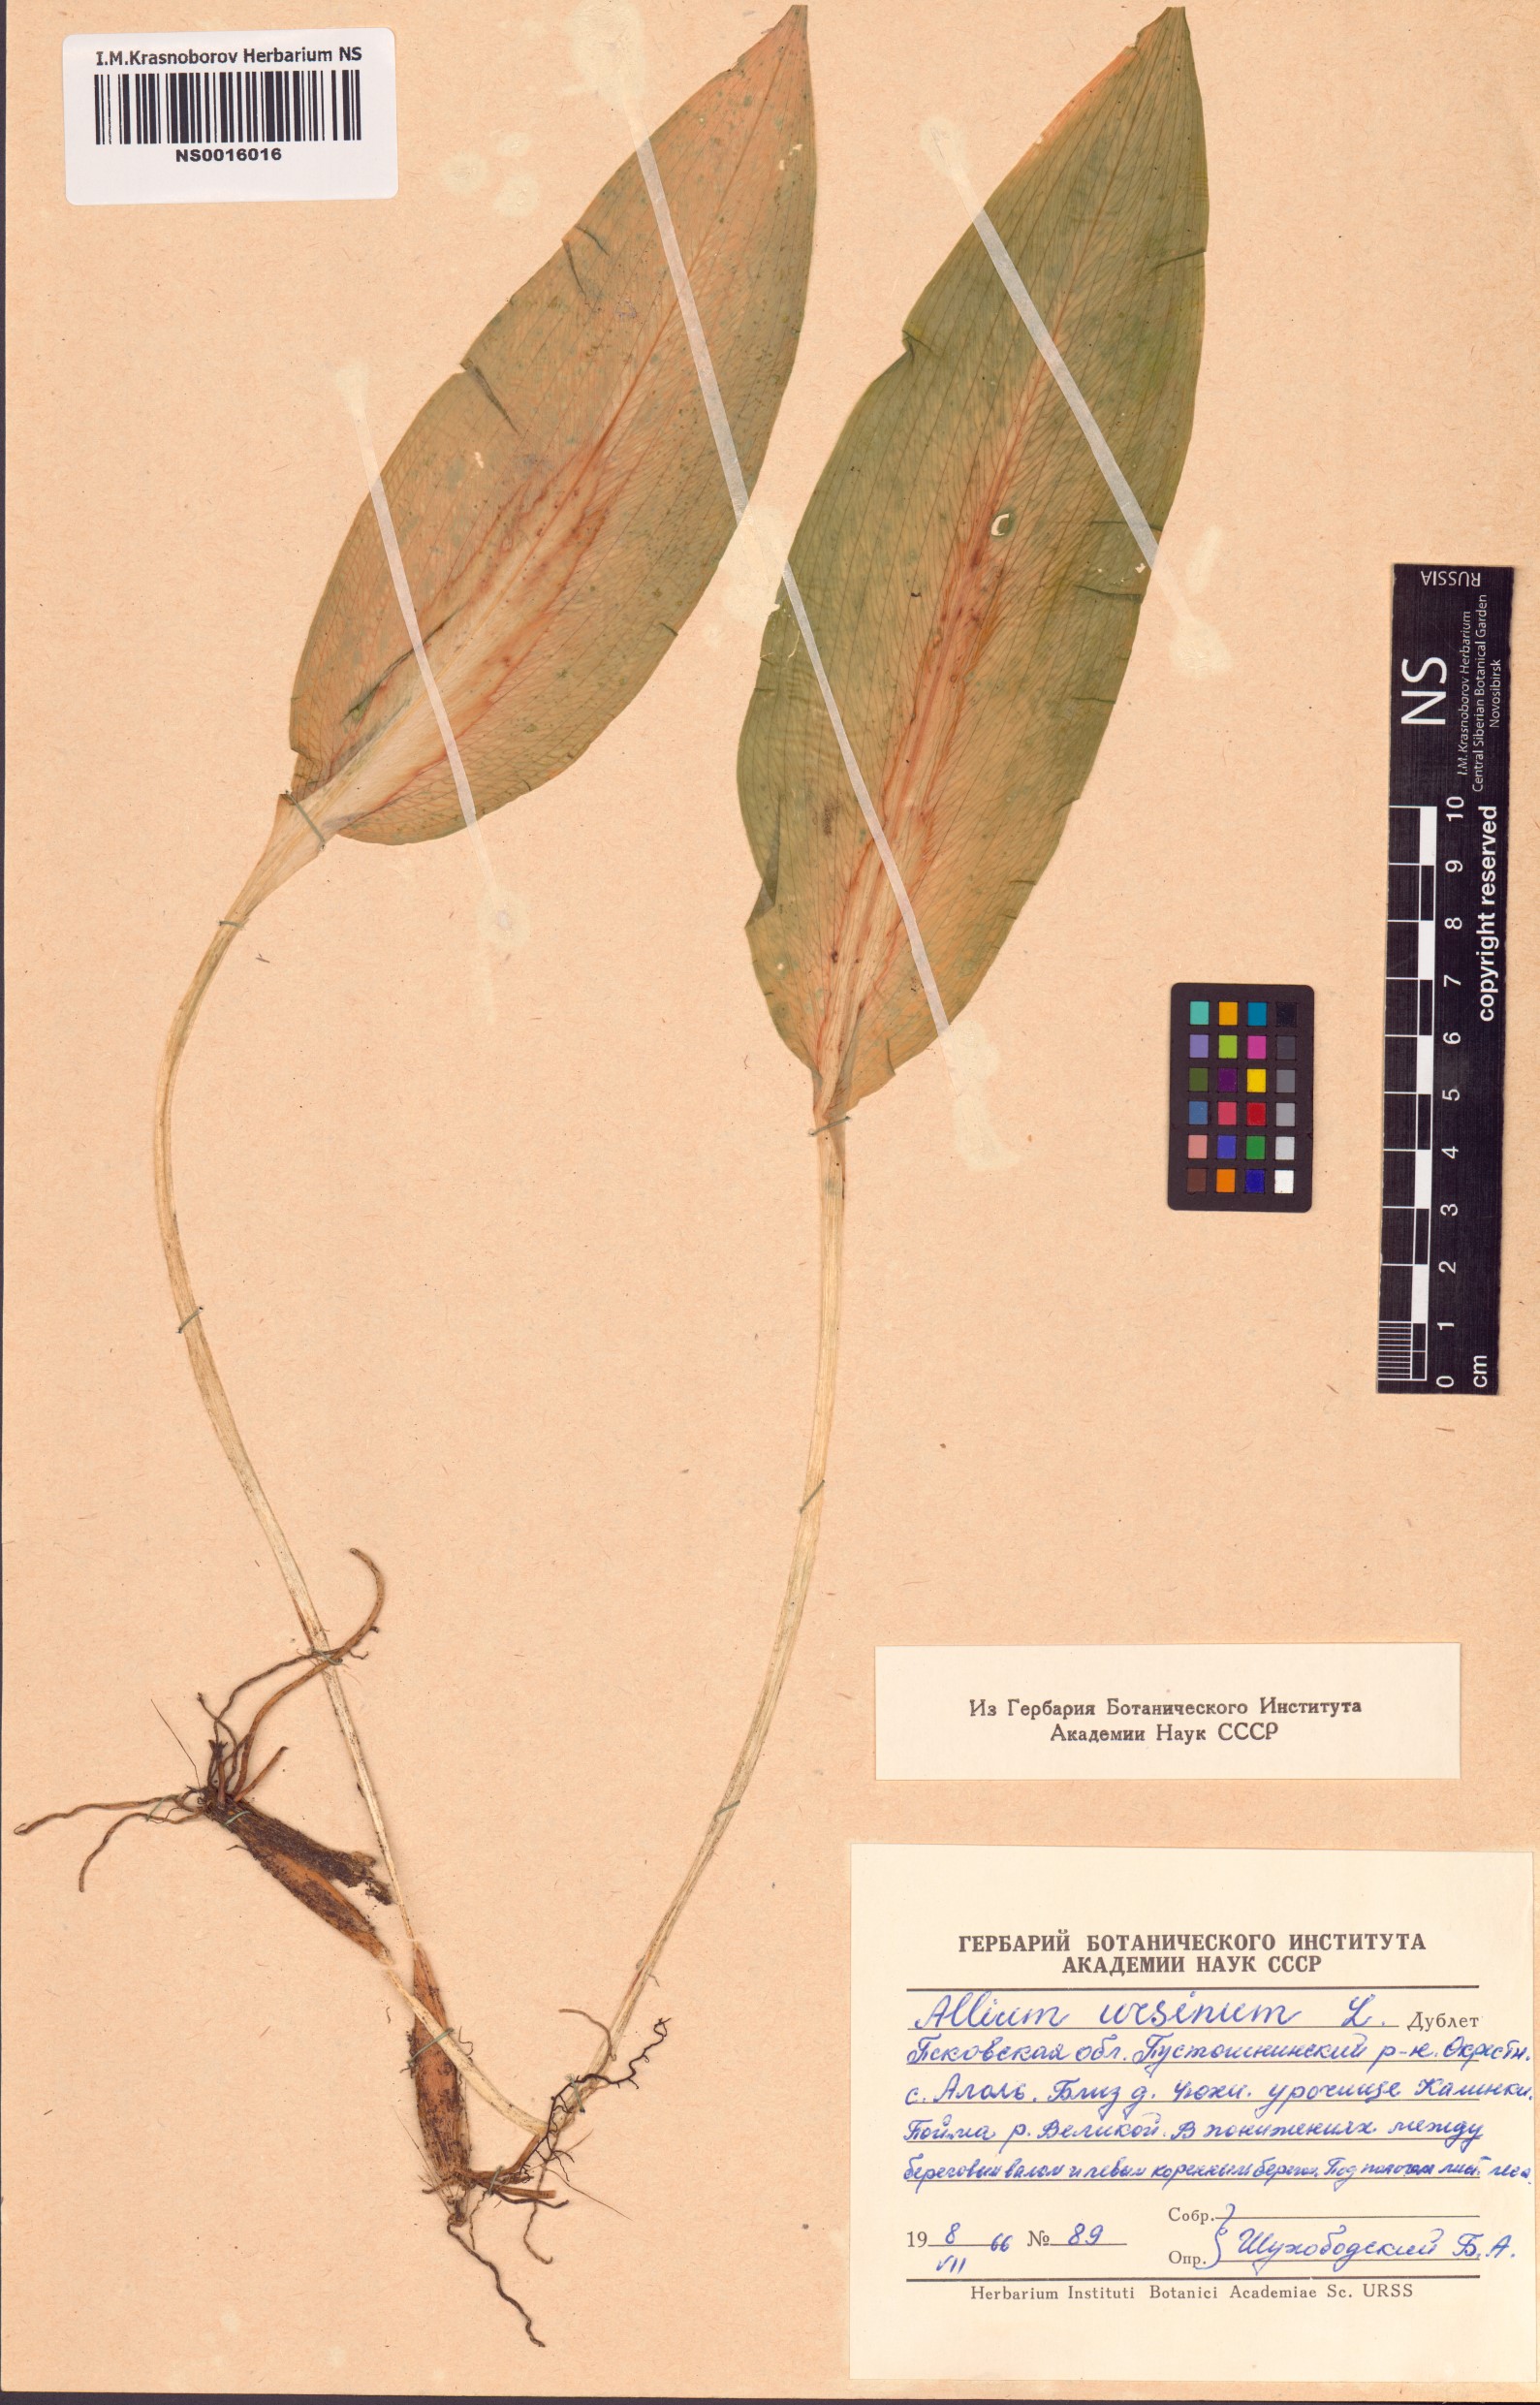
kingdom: Plantae
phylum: Tracheophyta
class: Liliopsida
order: Asparagales
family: Amaryllidaceae
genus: Allium
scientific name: Allium ursinum
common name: Ramsons
